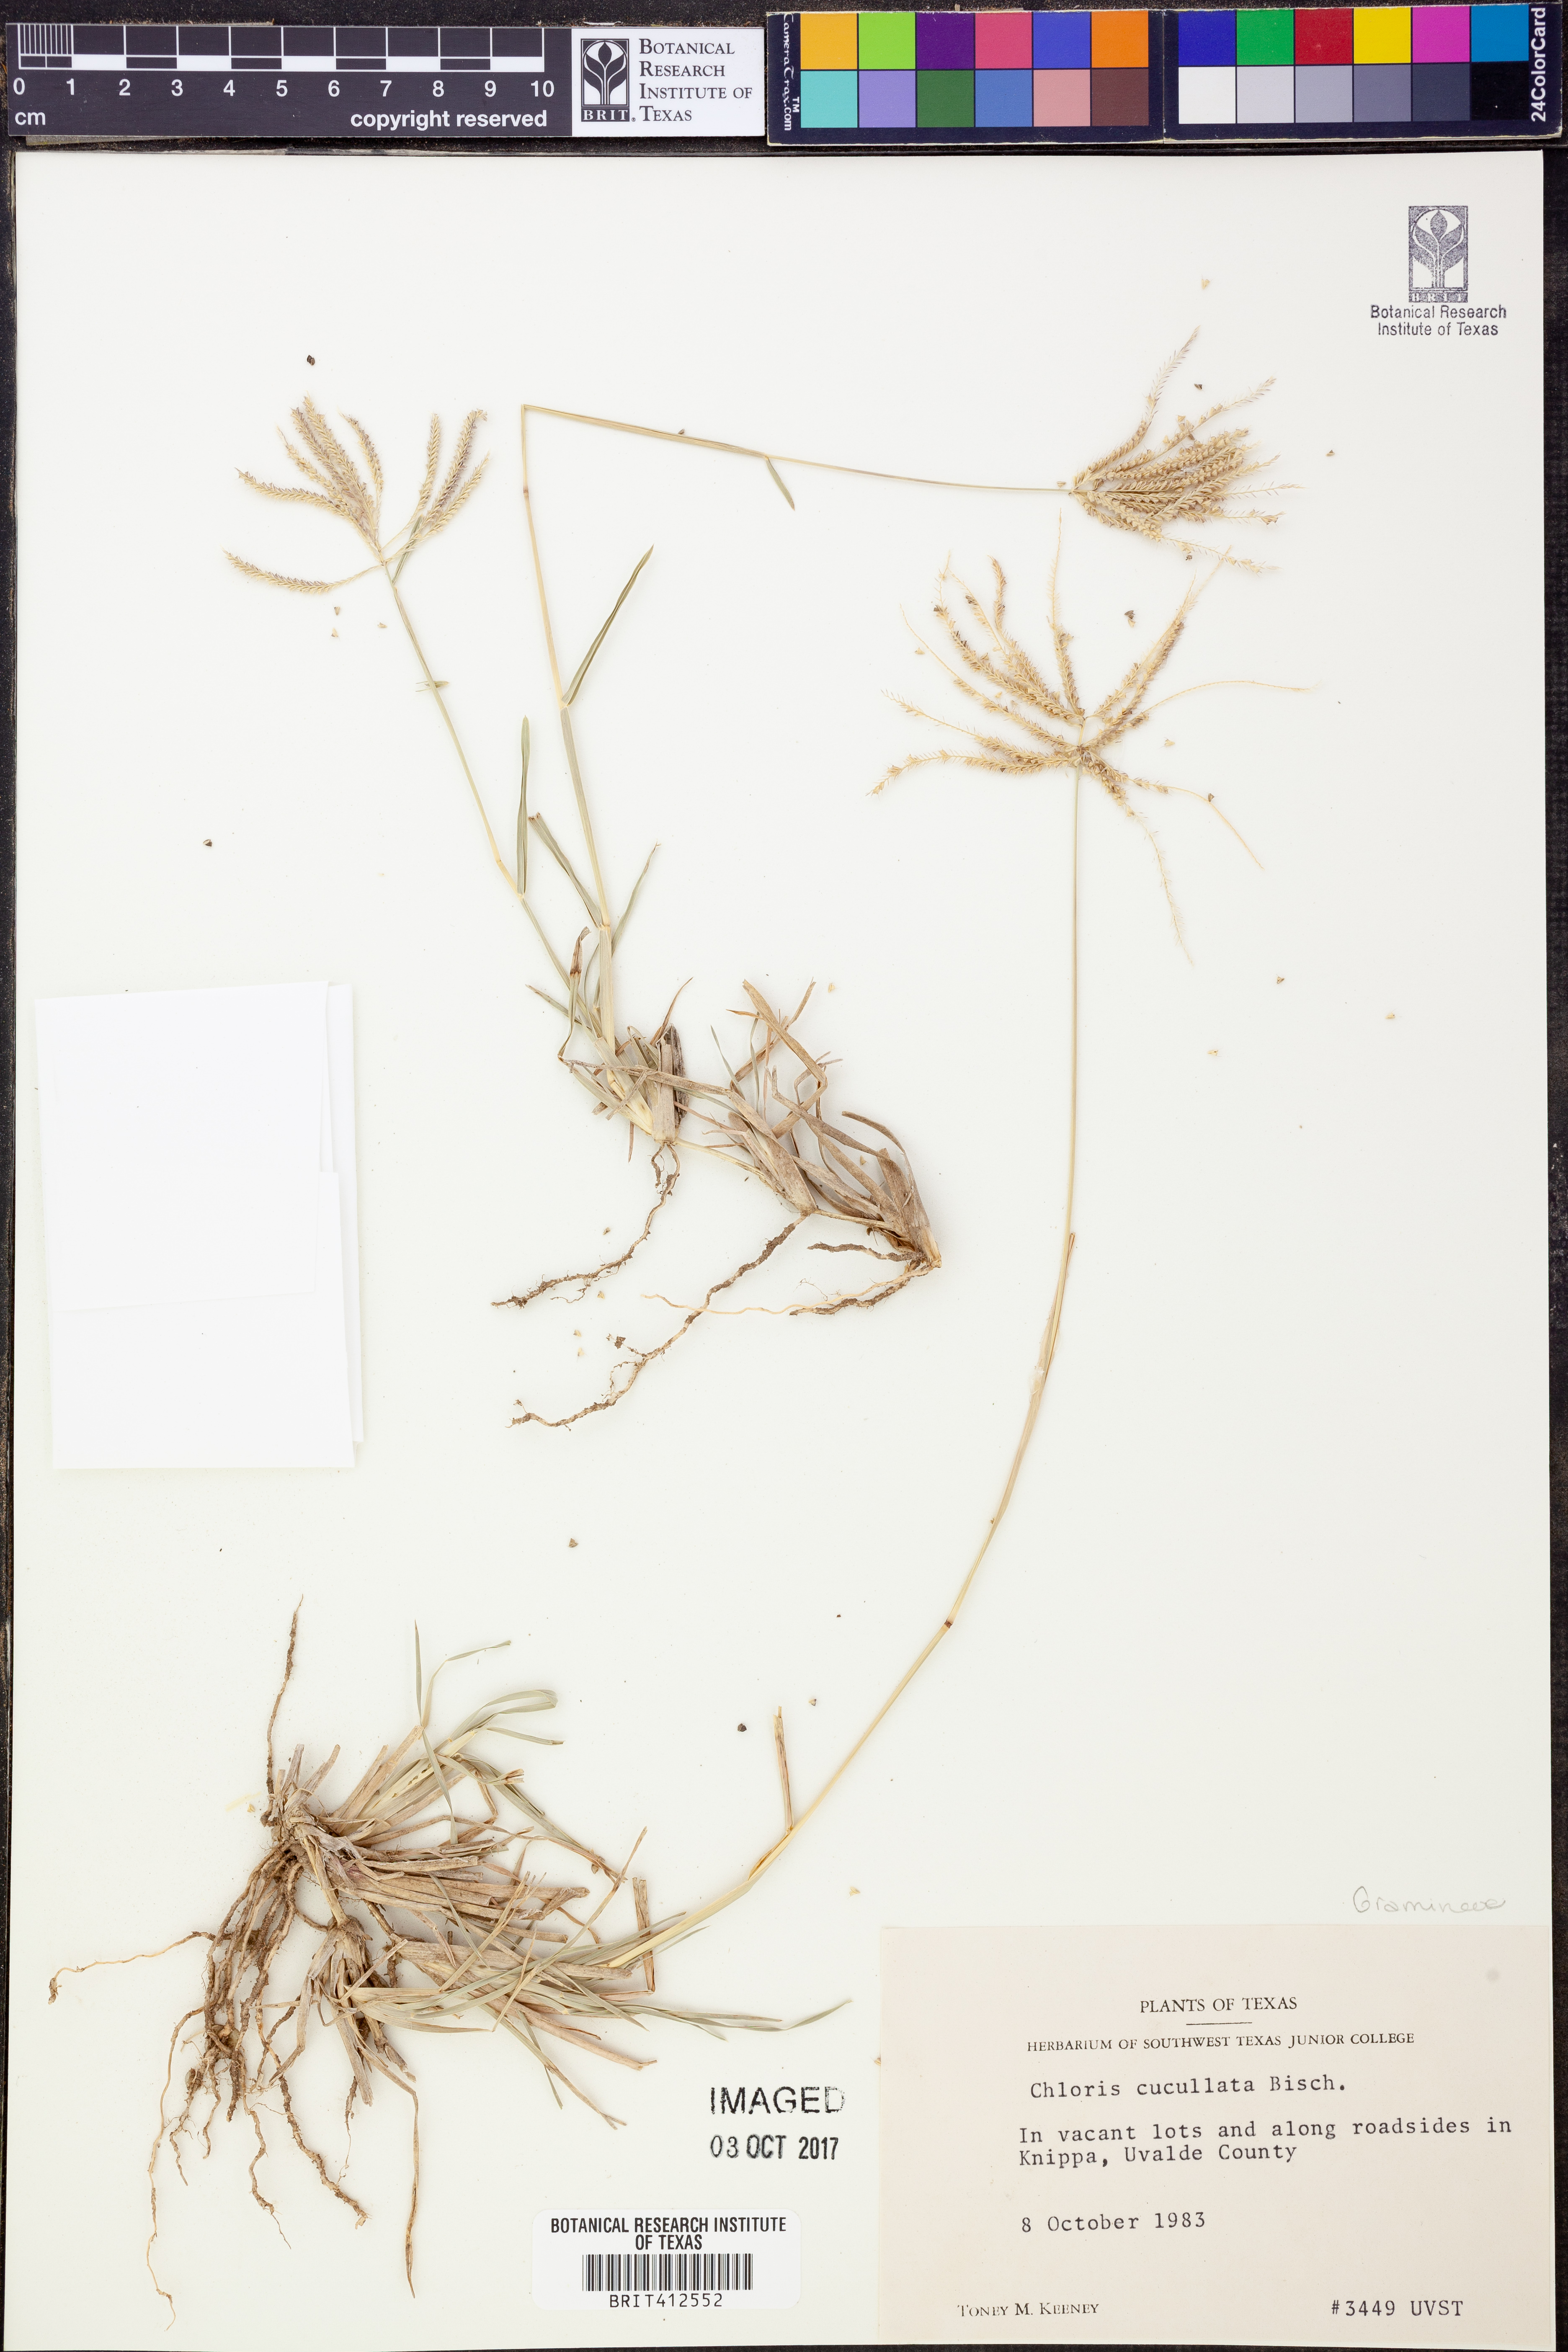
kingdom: Plantae
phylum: Tracheophyta
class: Liliopsida
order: Poales
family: Poaceae
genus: Chloris
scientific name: Chloris cucullata
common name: Hooded windmill grass
